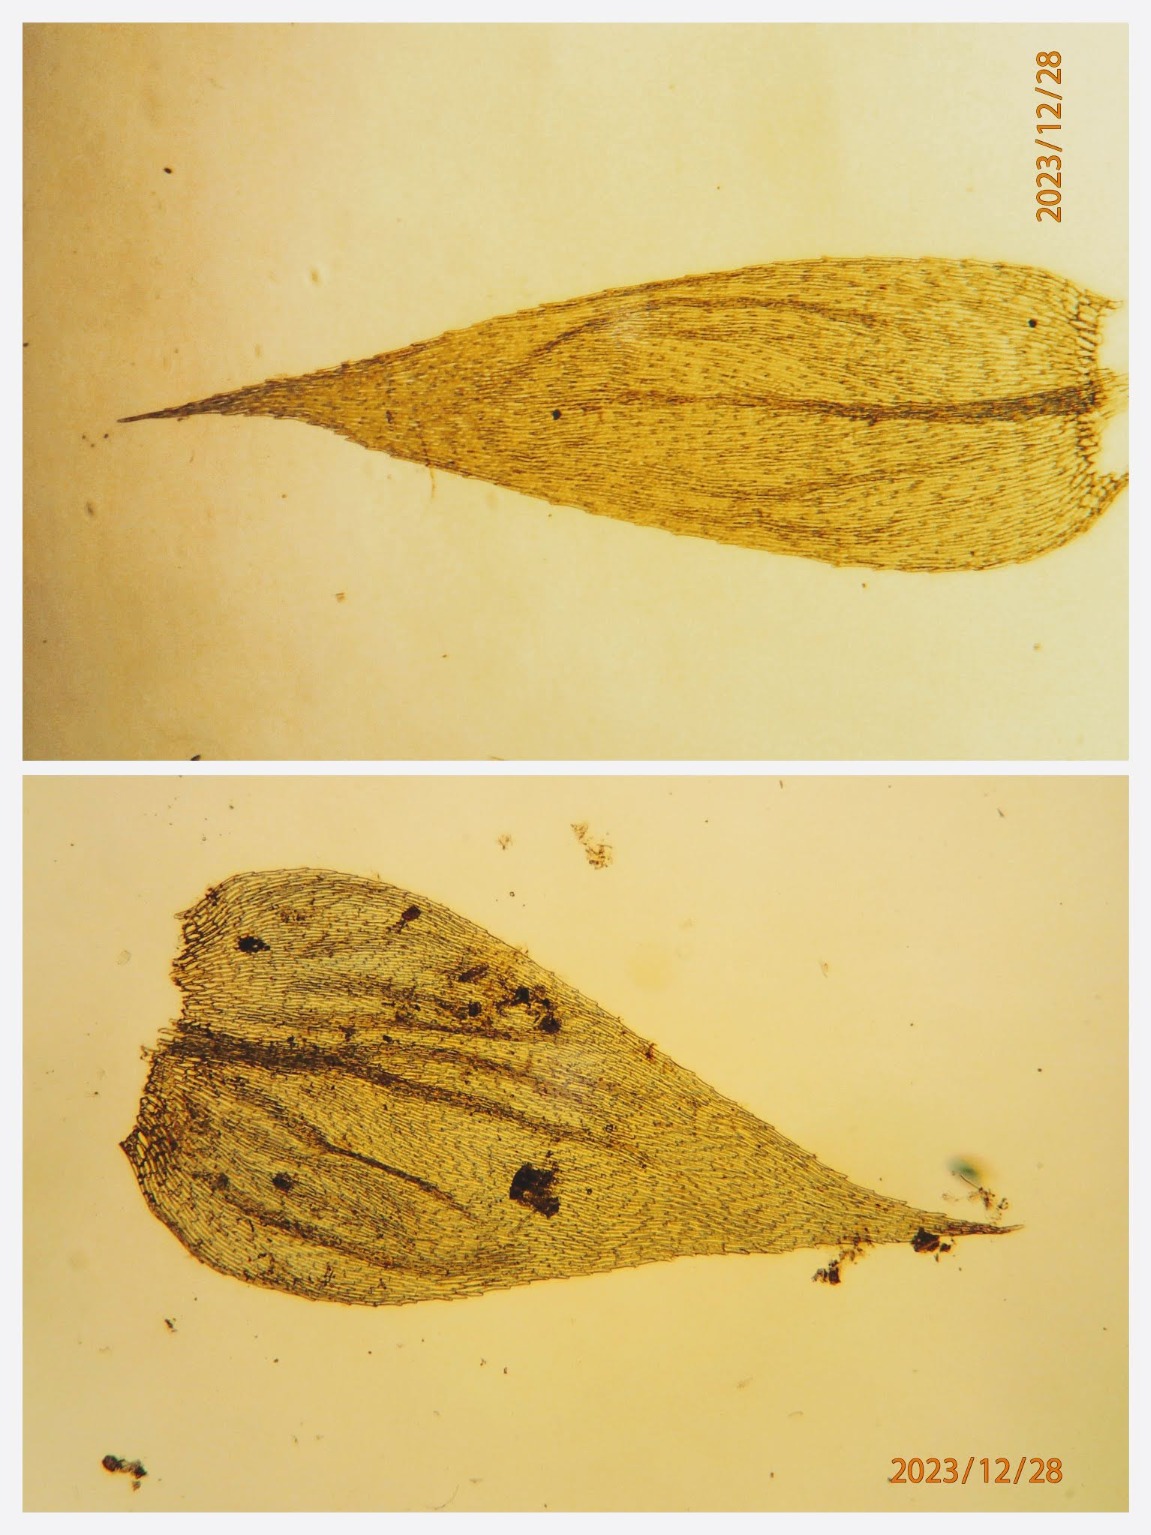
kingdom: Plantae
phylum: Bryophyta
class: Bryopsida
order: Hypnales
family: Brachytheciaceae
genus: Brachythecium
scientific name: Brachythecium rutabulum
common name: Almindelig kortkapsel
